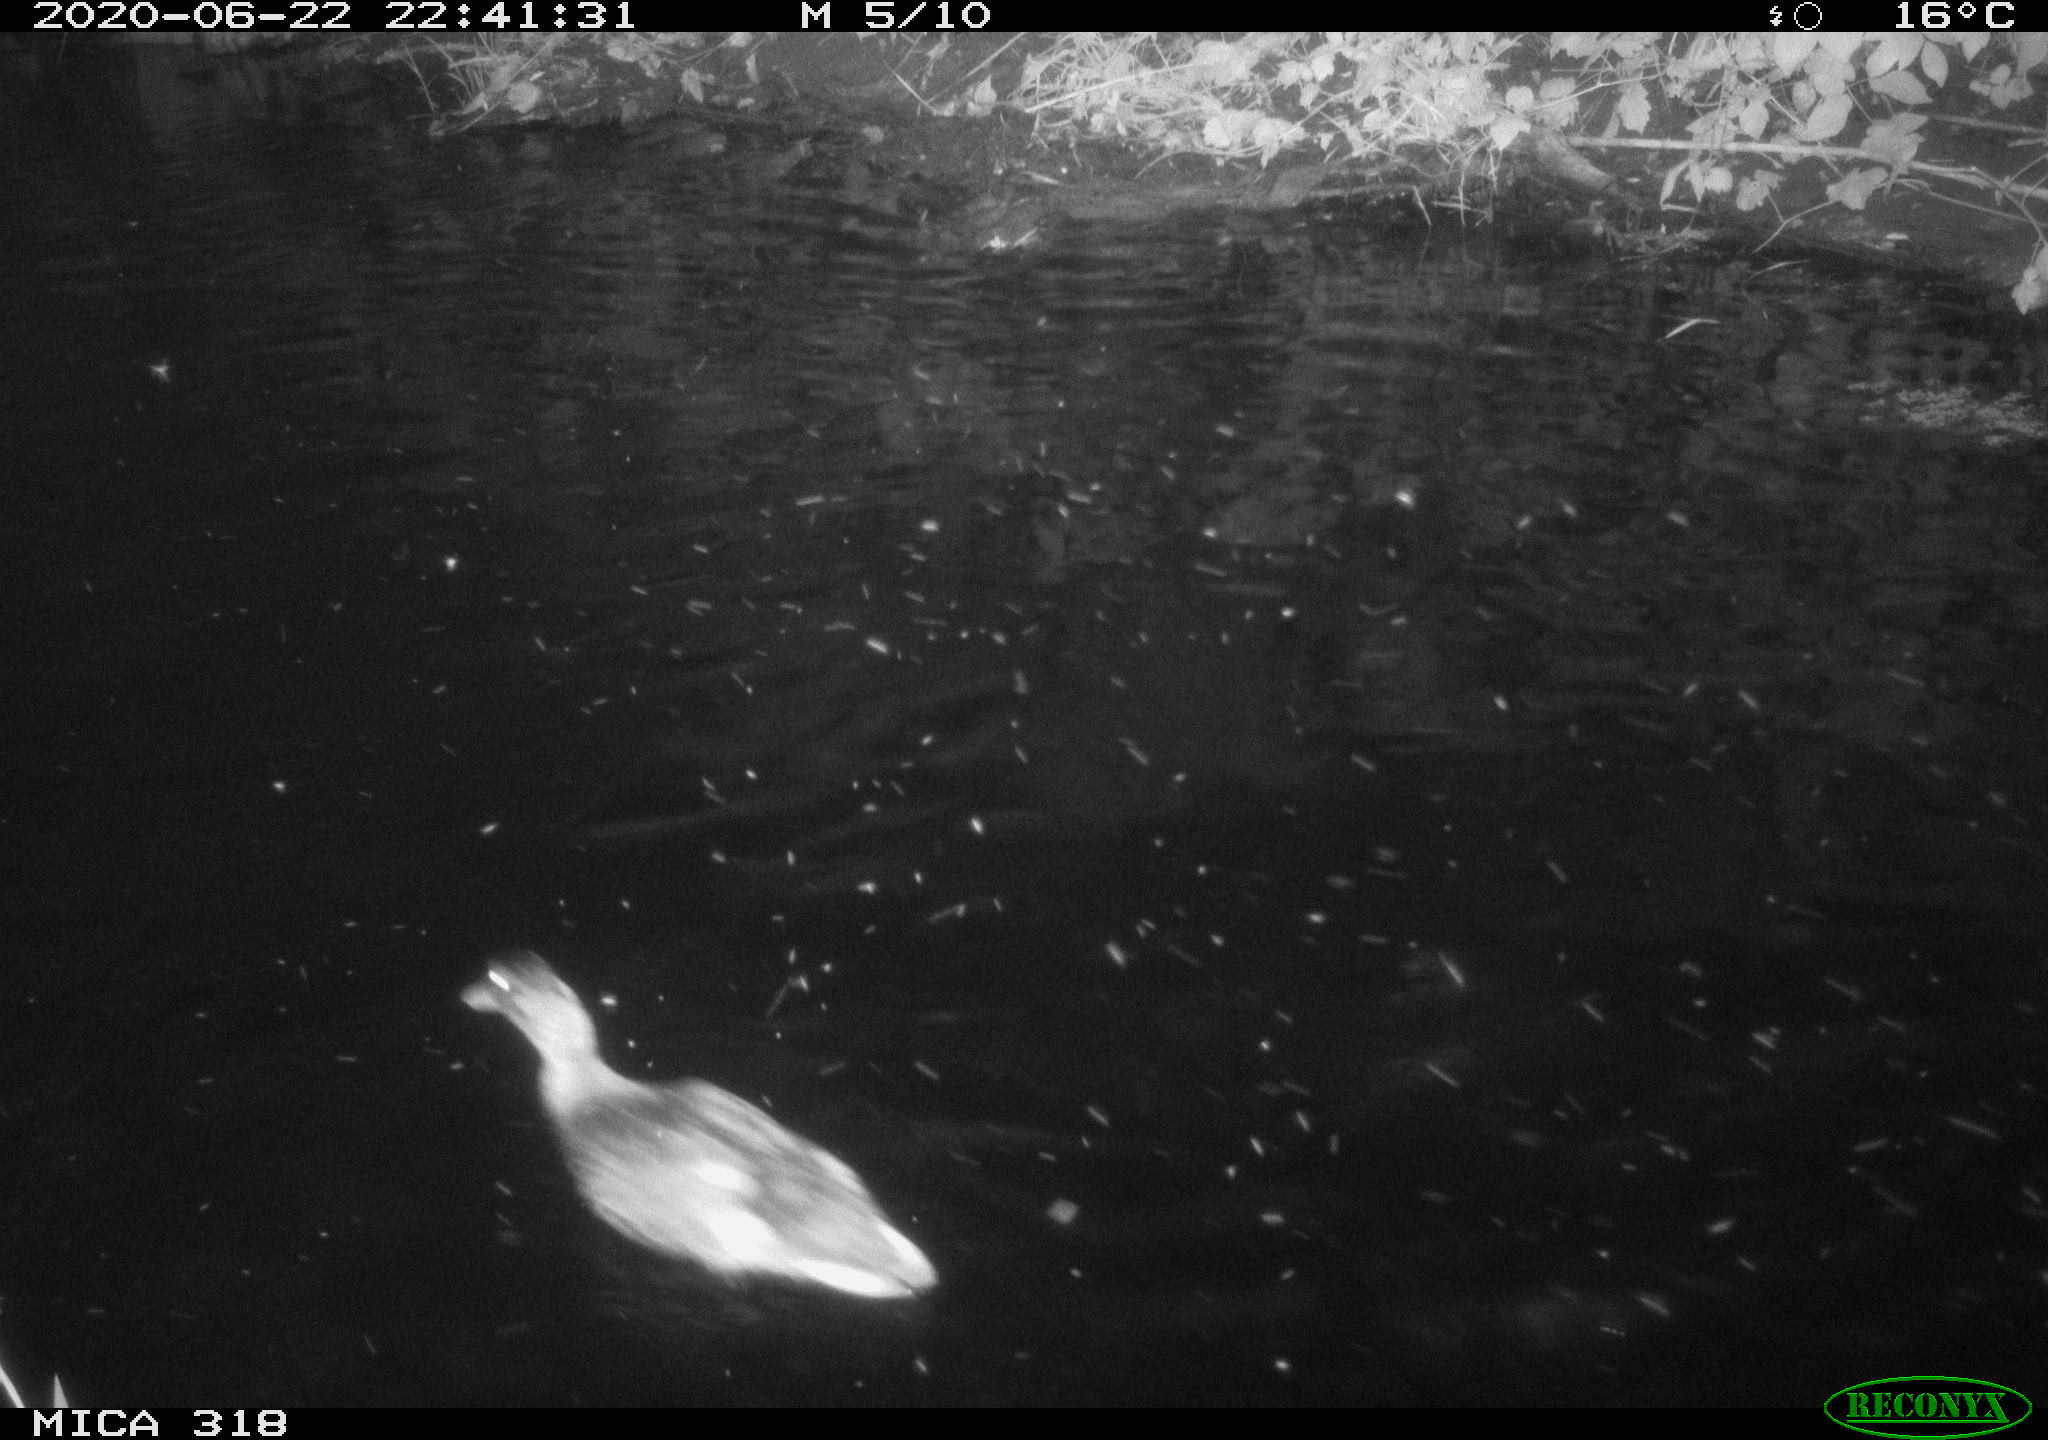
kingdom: Animalia
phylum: Chordata
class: Aves
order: Anseriformes
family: Anatidae
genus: Anas
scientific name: Anas platyrhynchos
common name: Mallard
